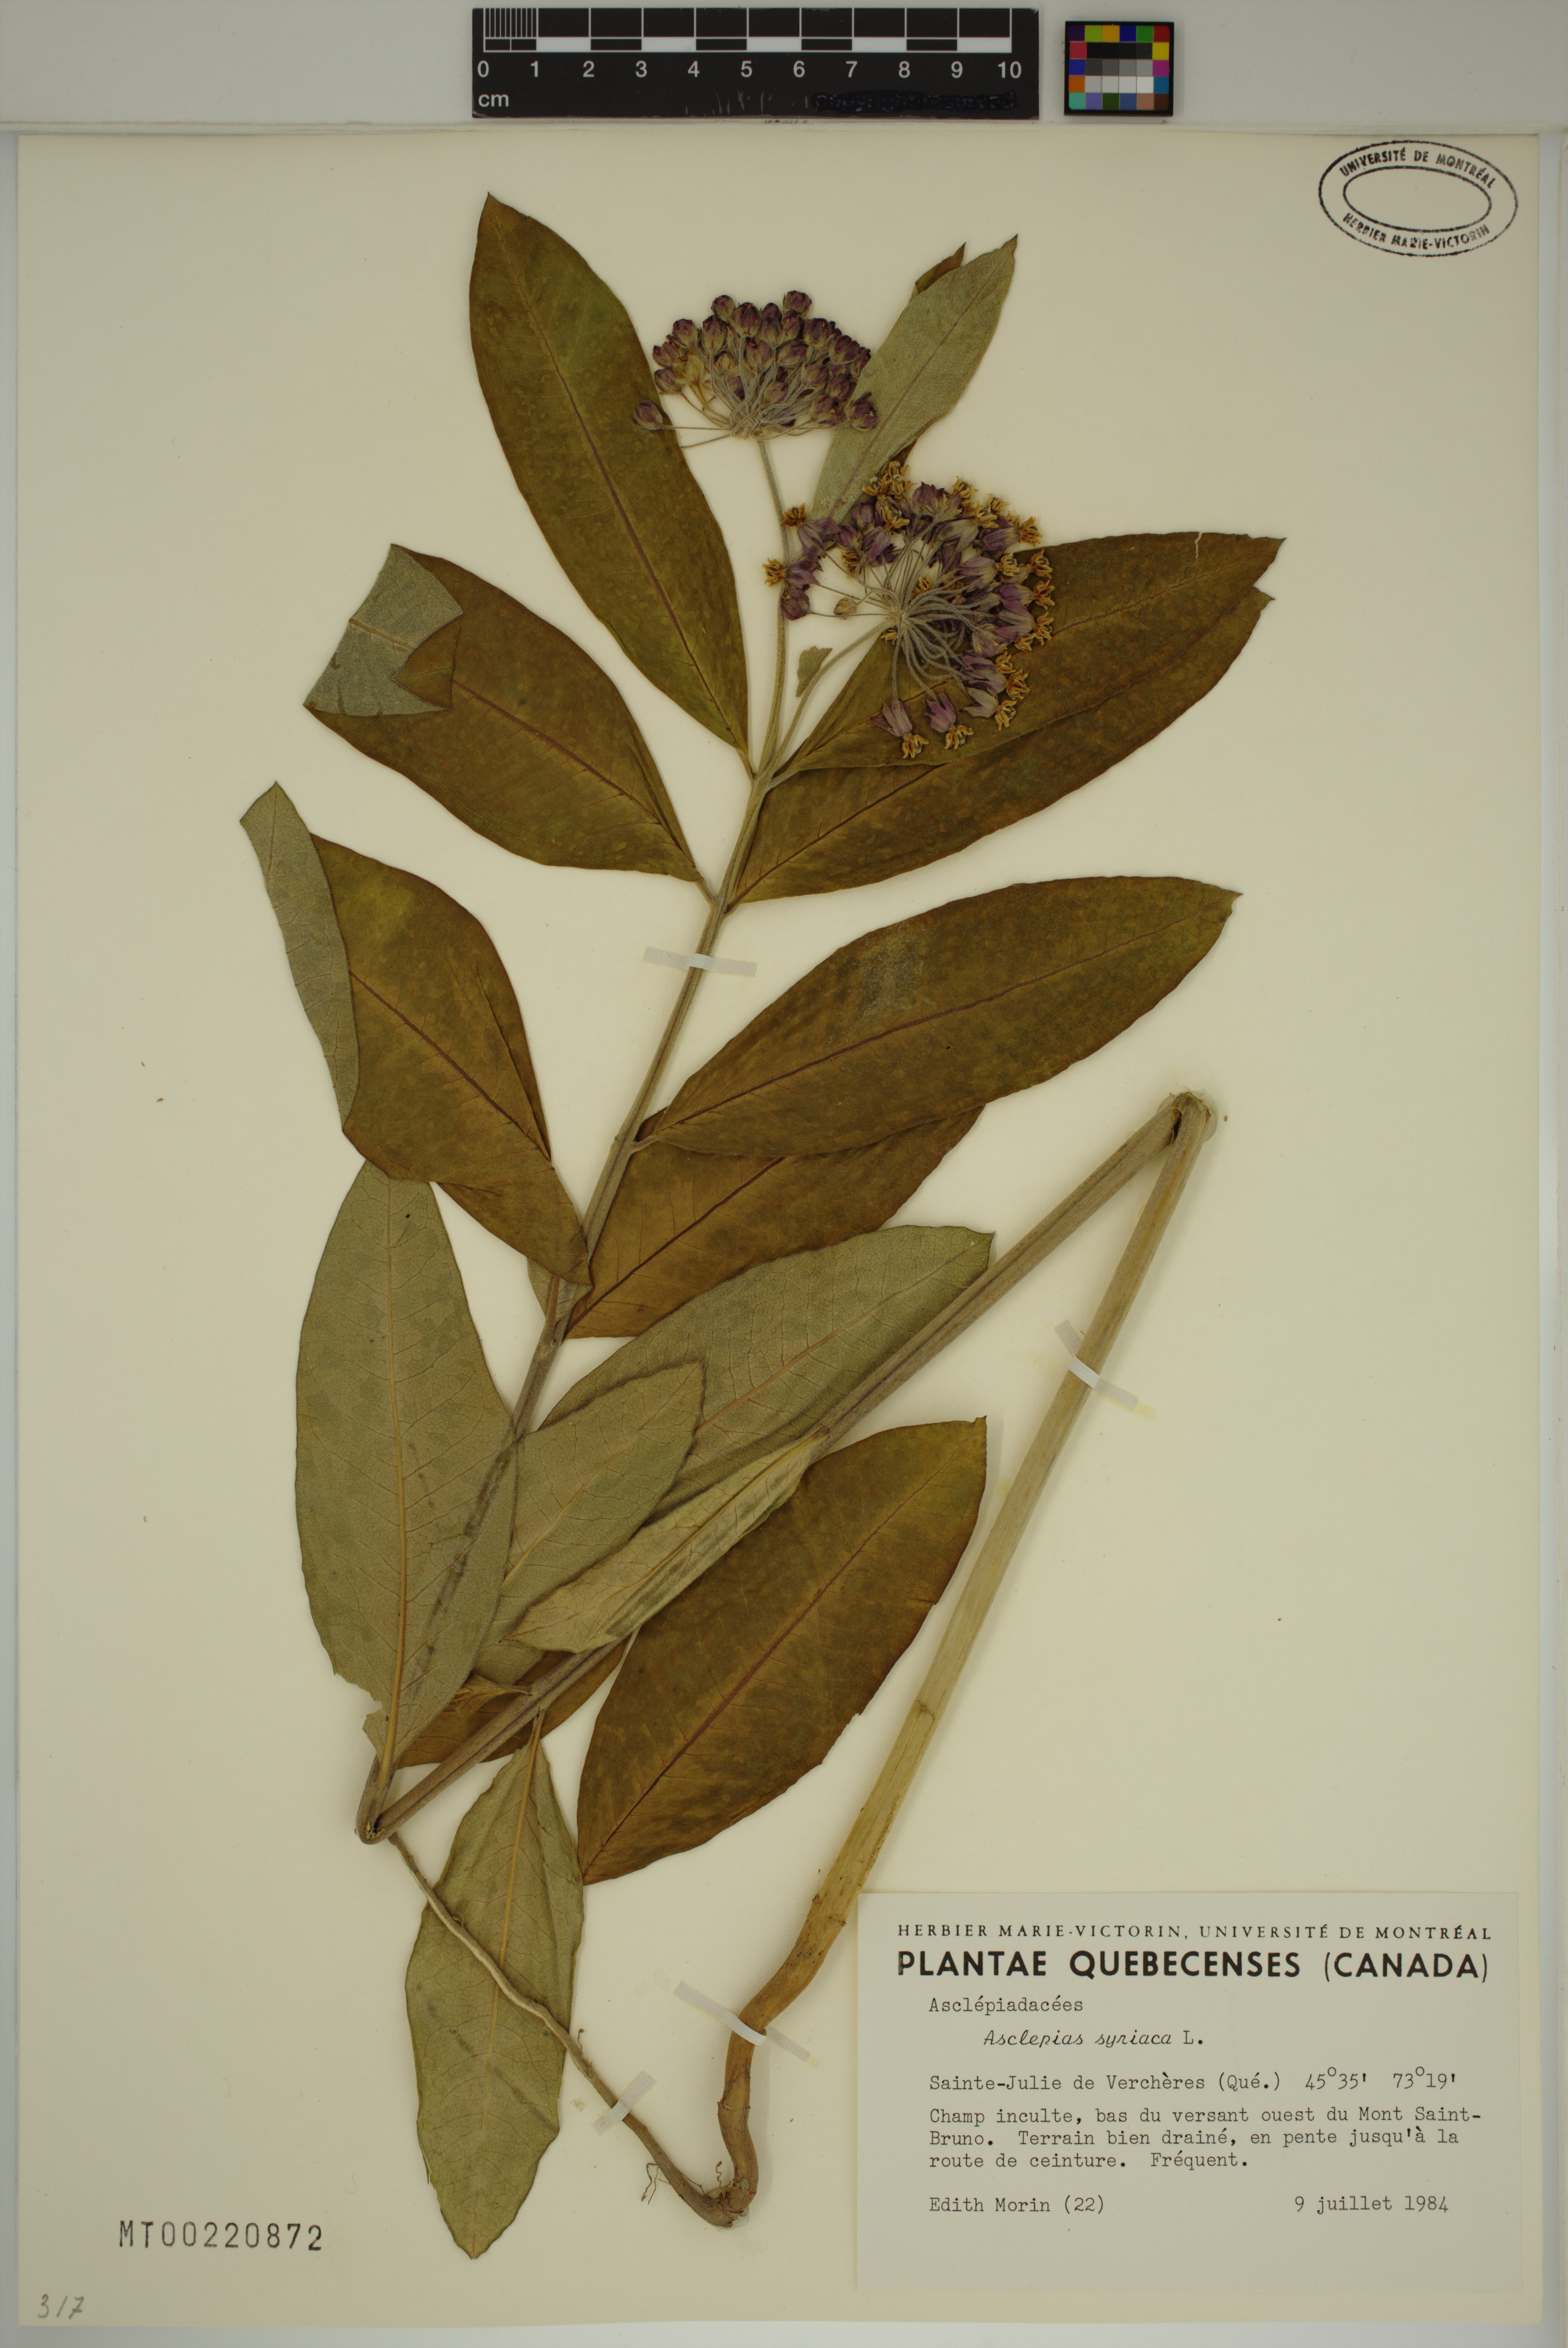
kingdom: Plantae
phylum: Tracheophyta
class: Magnoliopsida
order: Gentianales
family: Apocynaceae
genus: Asclepias
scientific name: Asclepias syriaca
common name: Common milkweed
